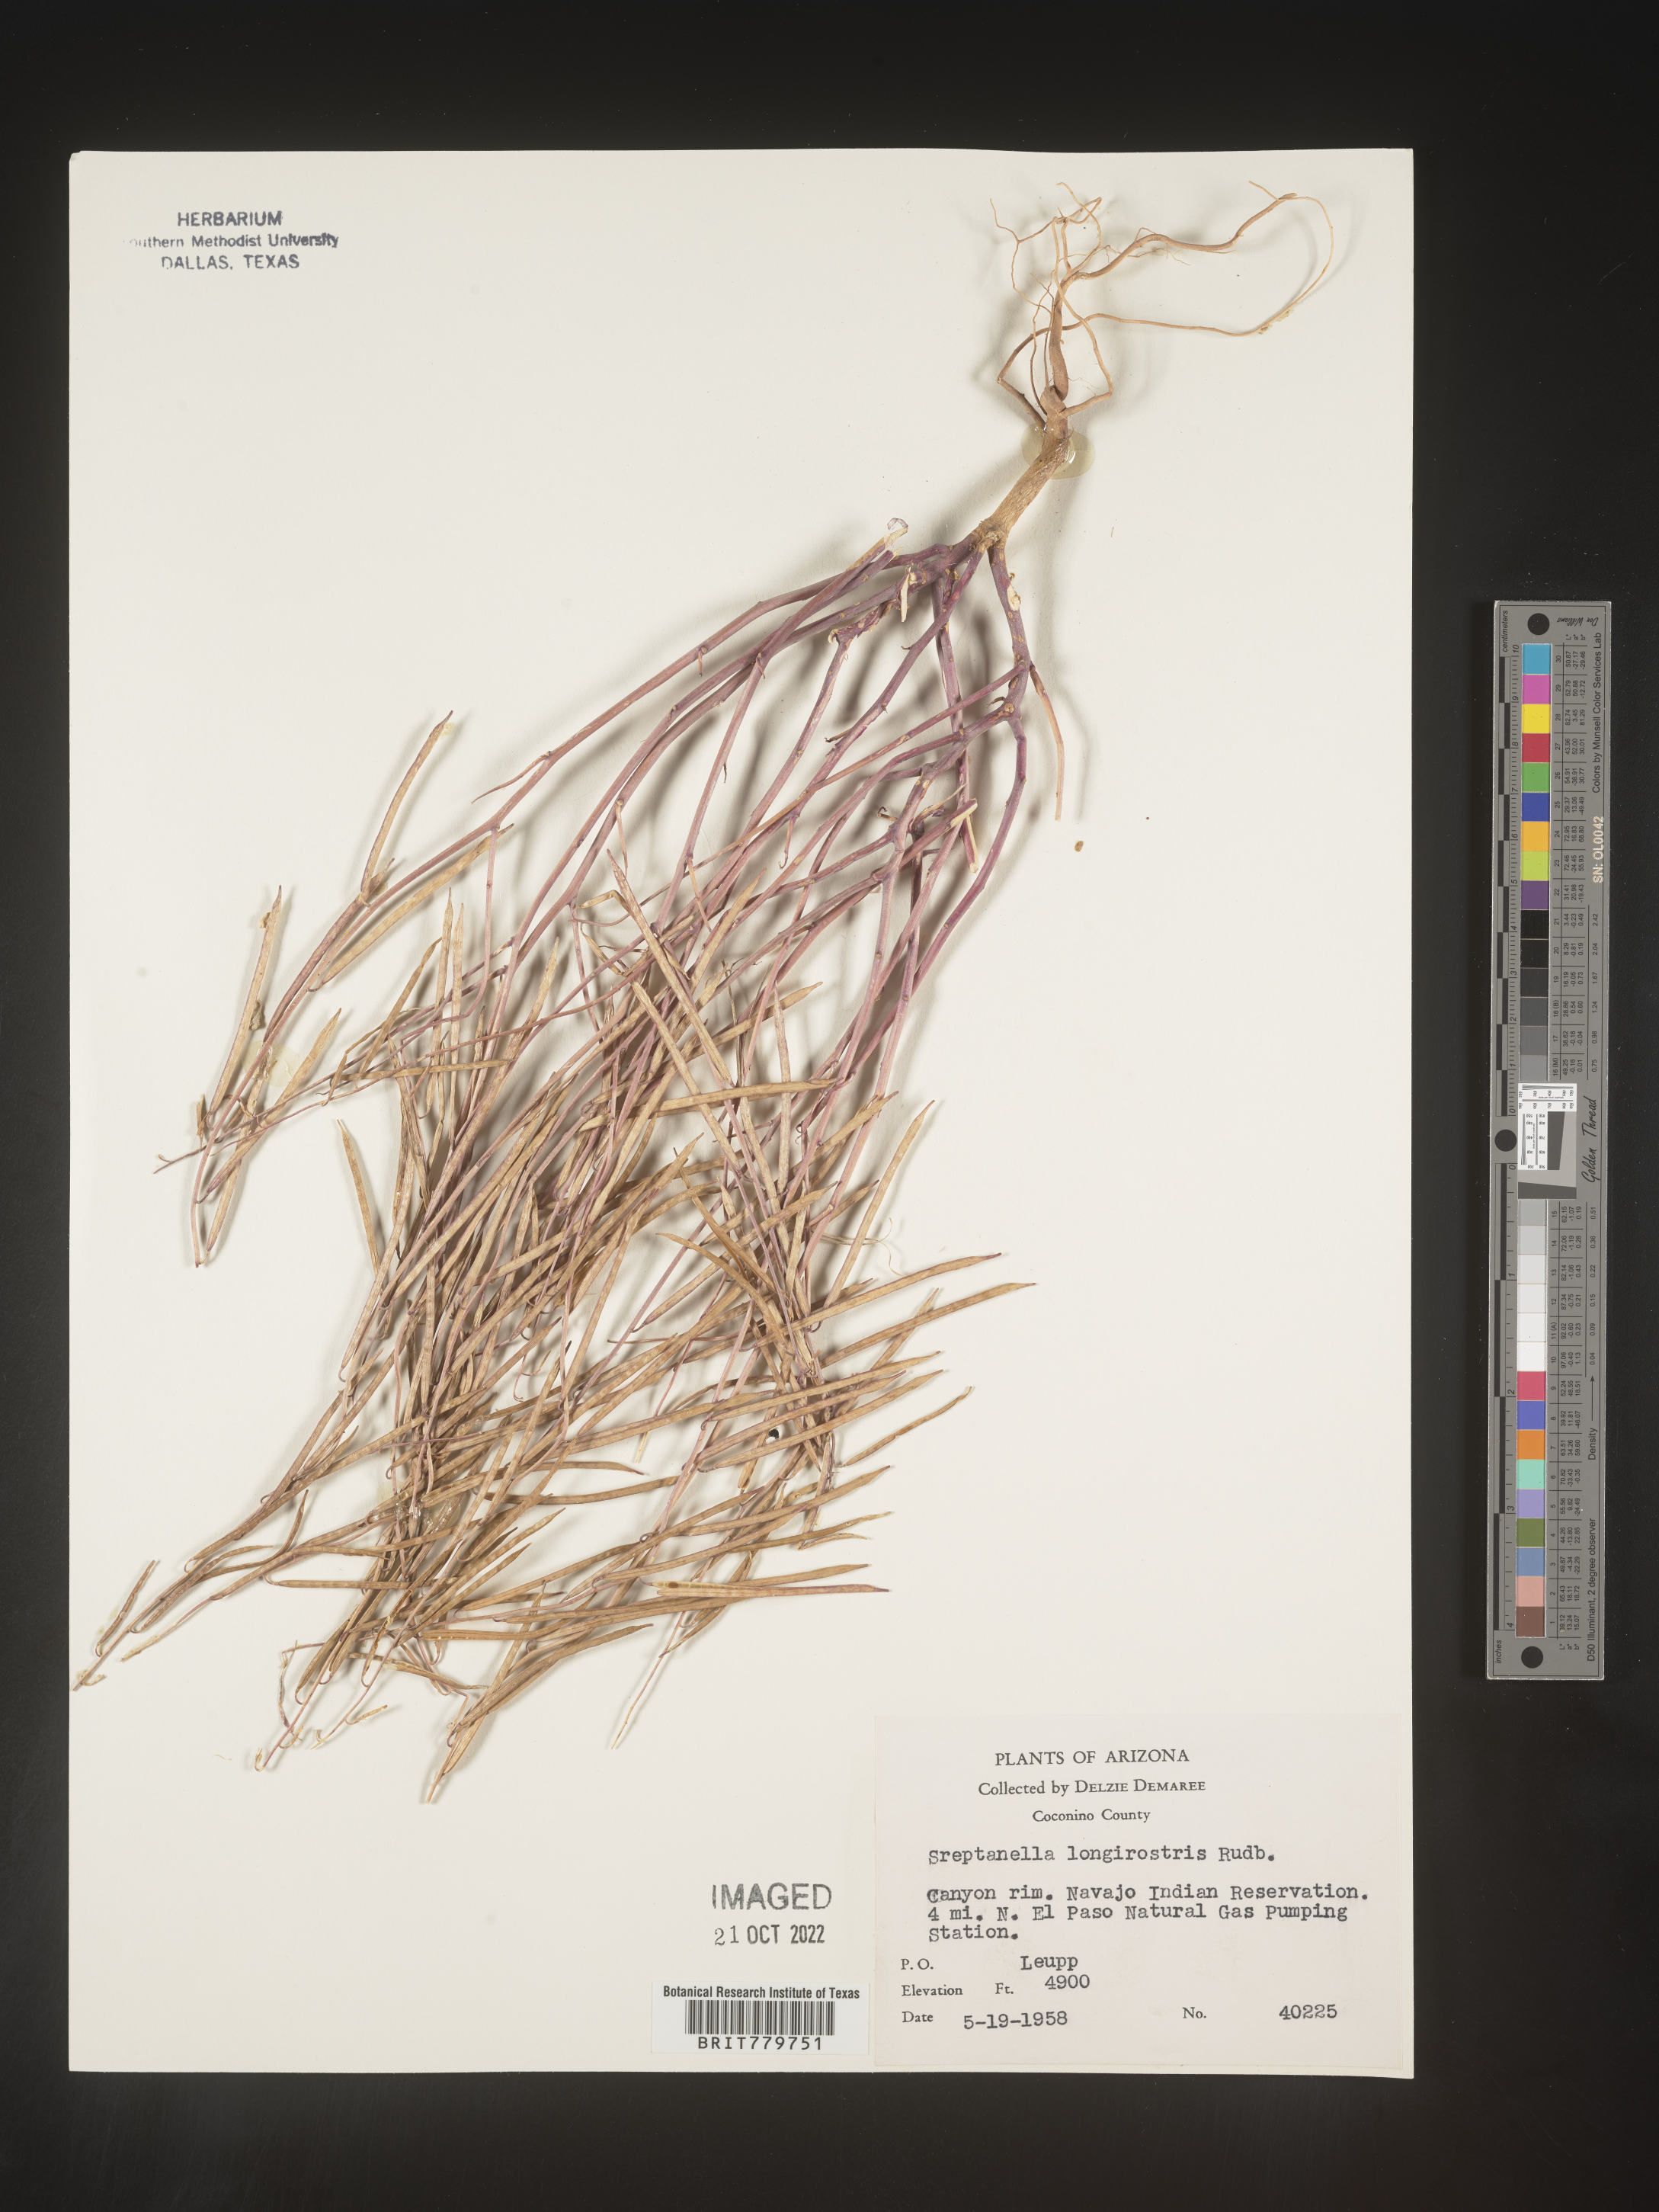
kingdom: Plantae
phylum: Tracheophyta
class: Magnoliopsida
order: Brassicales
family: Brassicaceae
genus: Streptanthus
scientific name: Streptanthus
